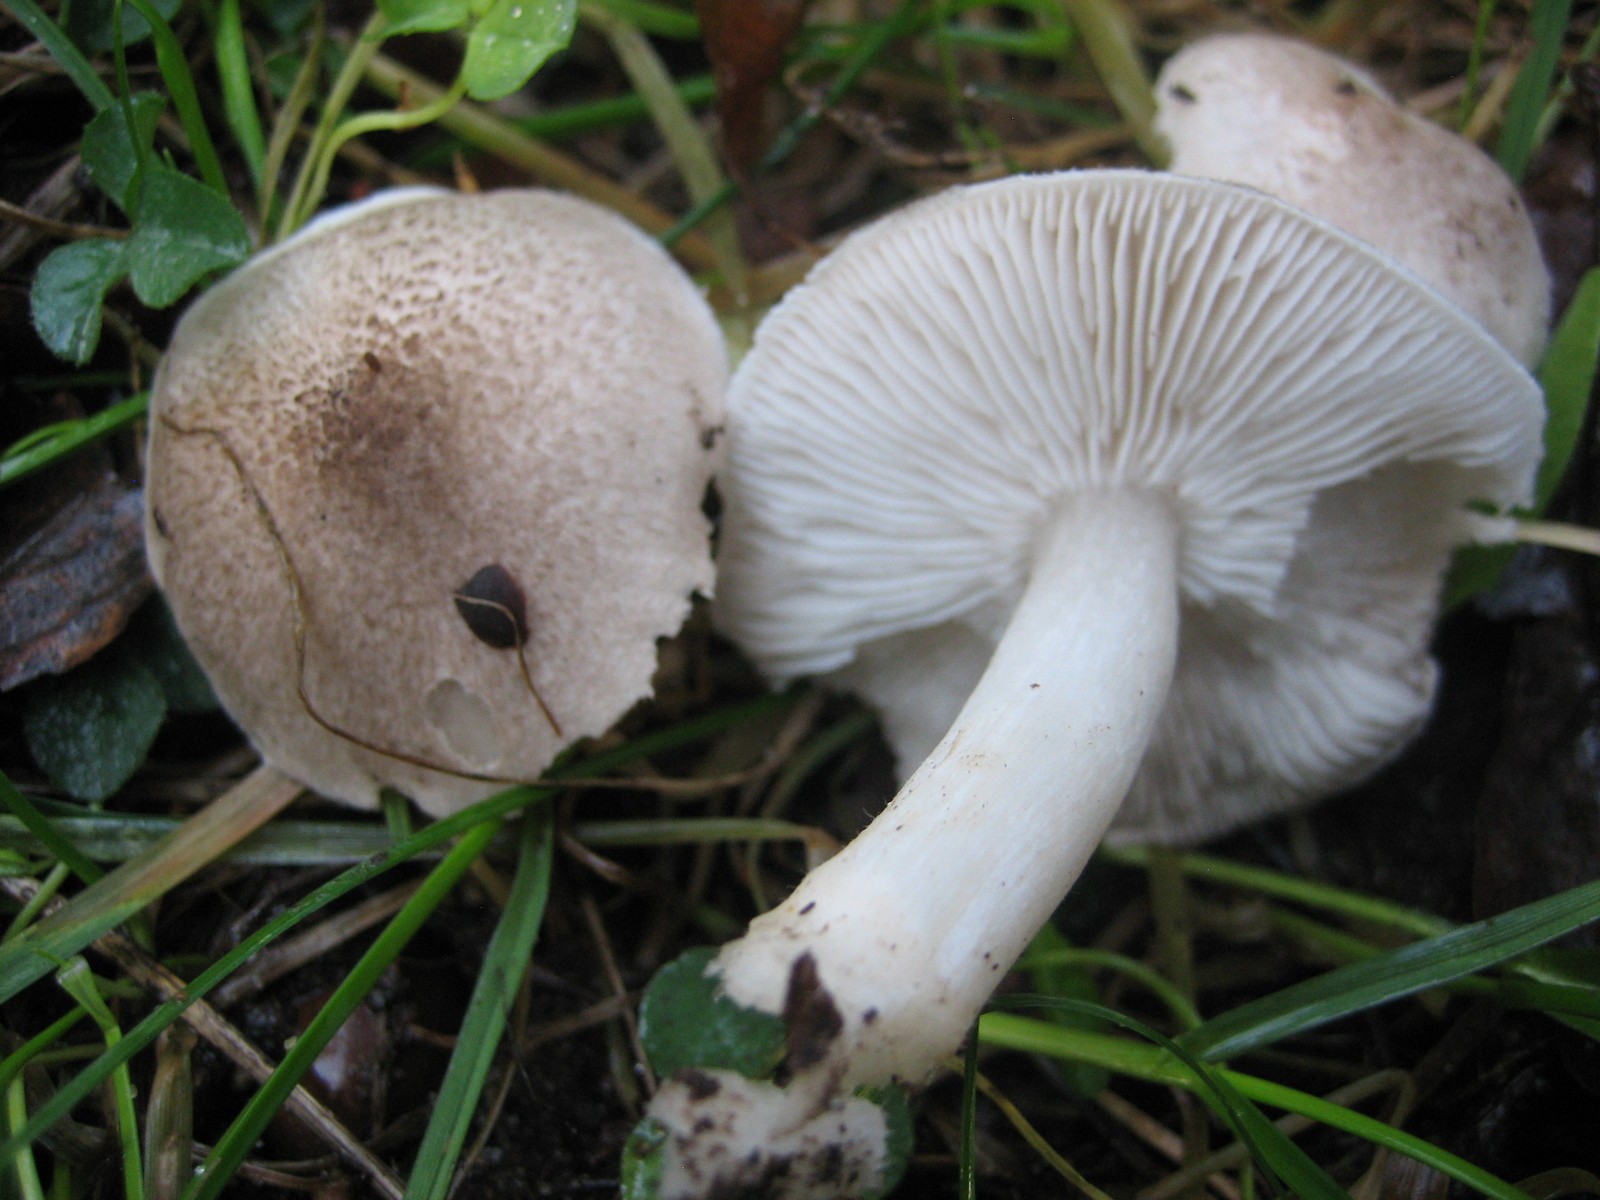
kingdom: Fungi
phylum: Basidiomycota
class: Agaricomycetes
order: Agaricales
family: Tricholomataceae
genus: Tricholoma
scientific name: Tricholoma
